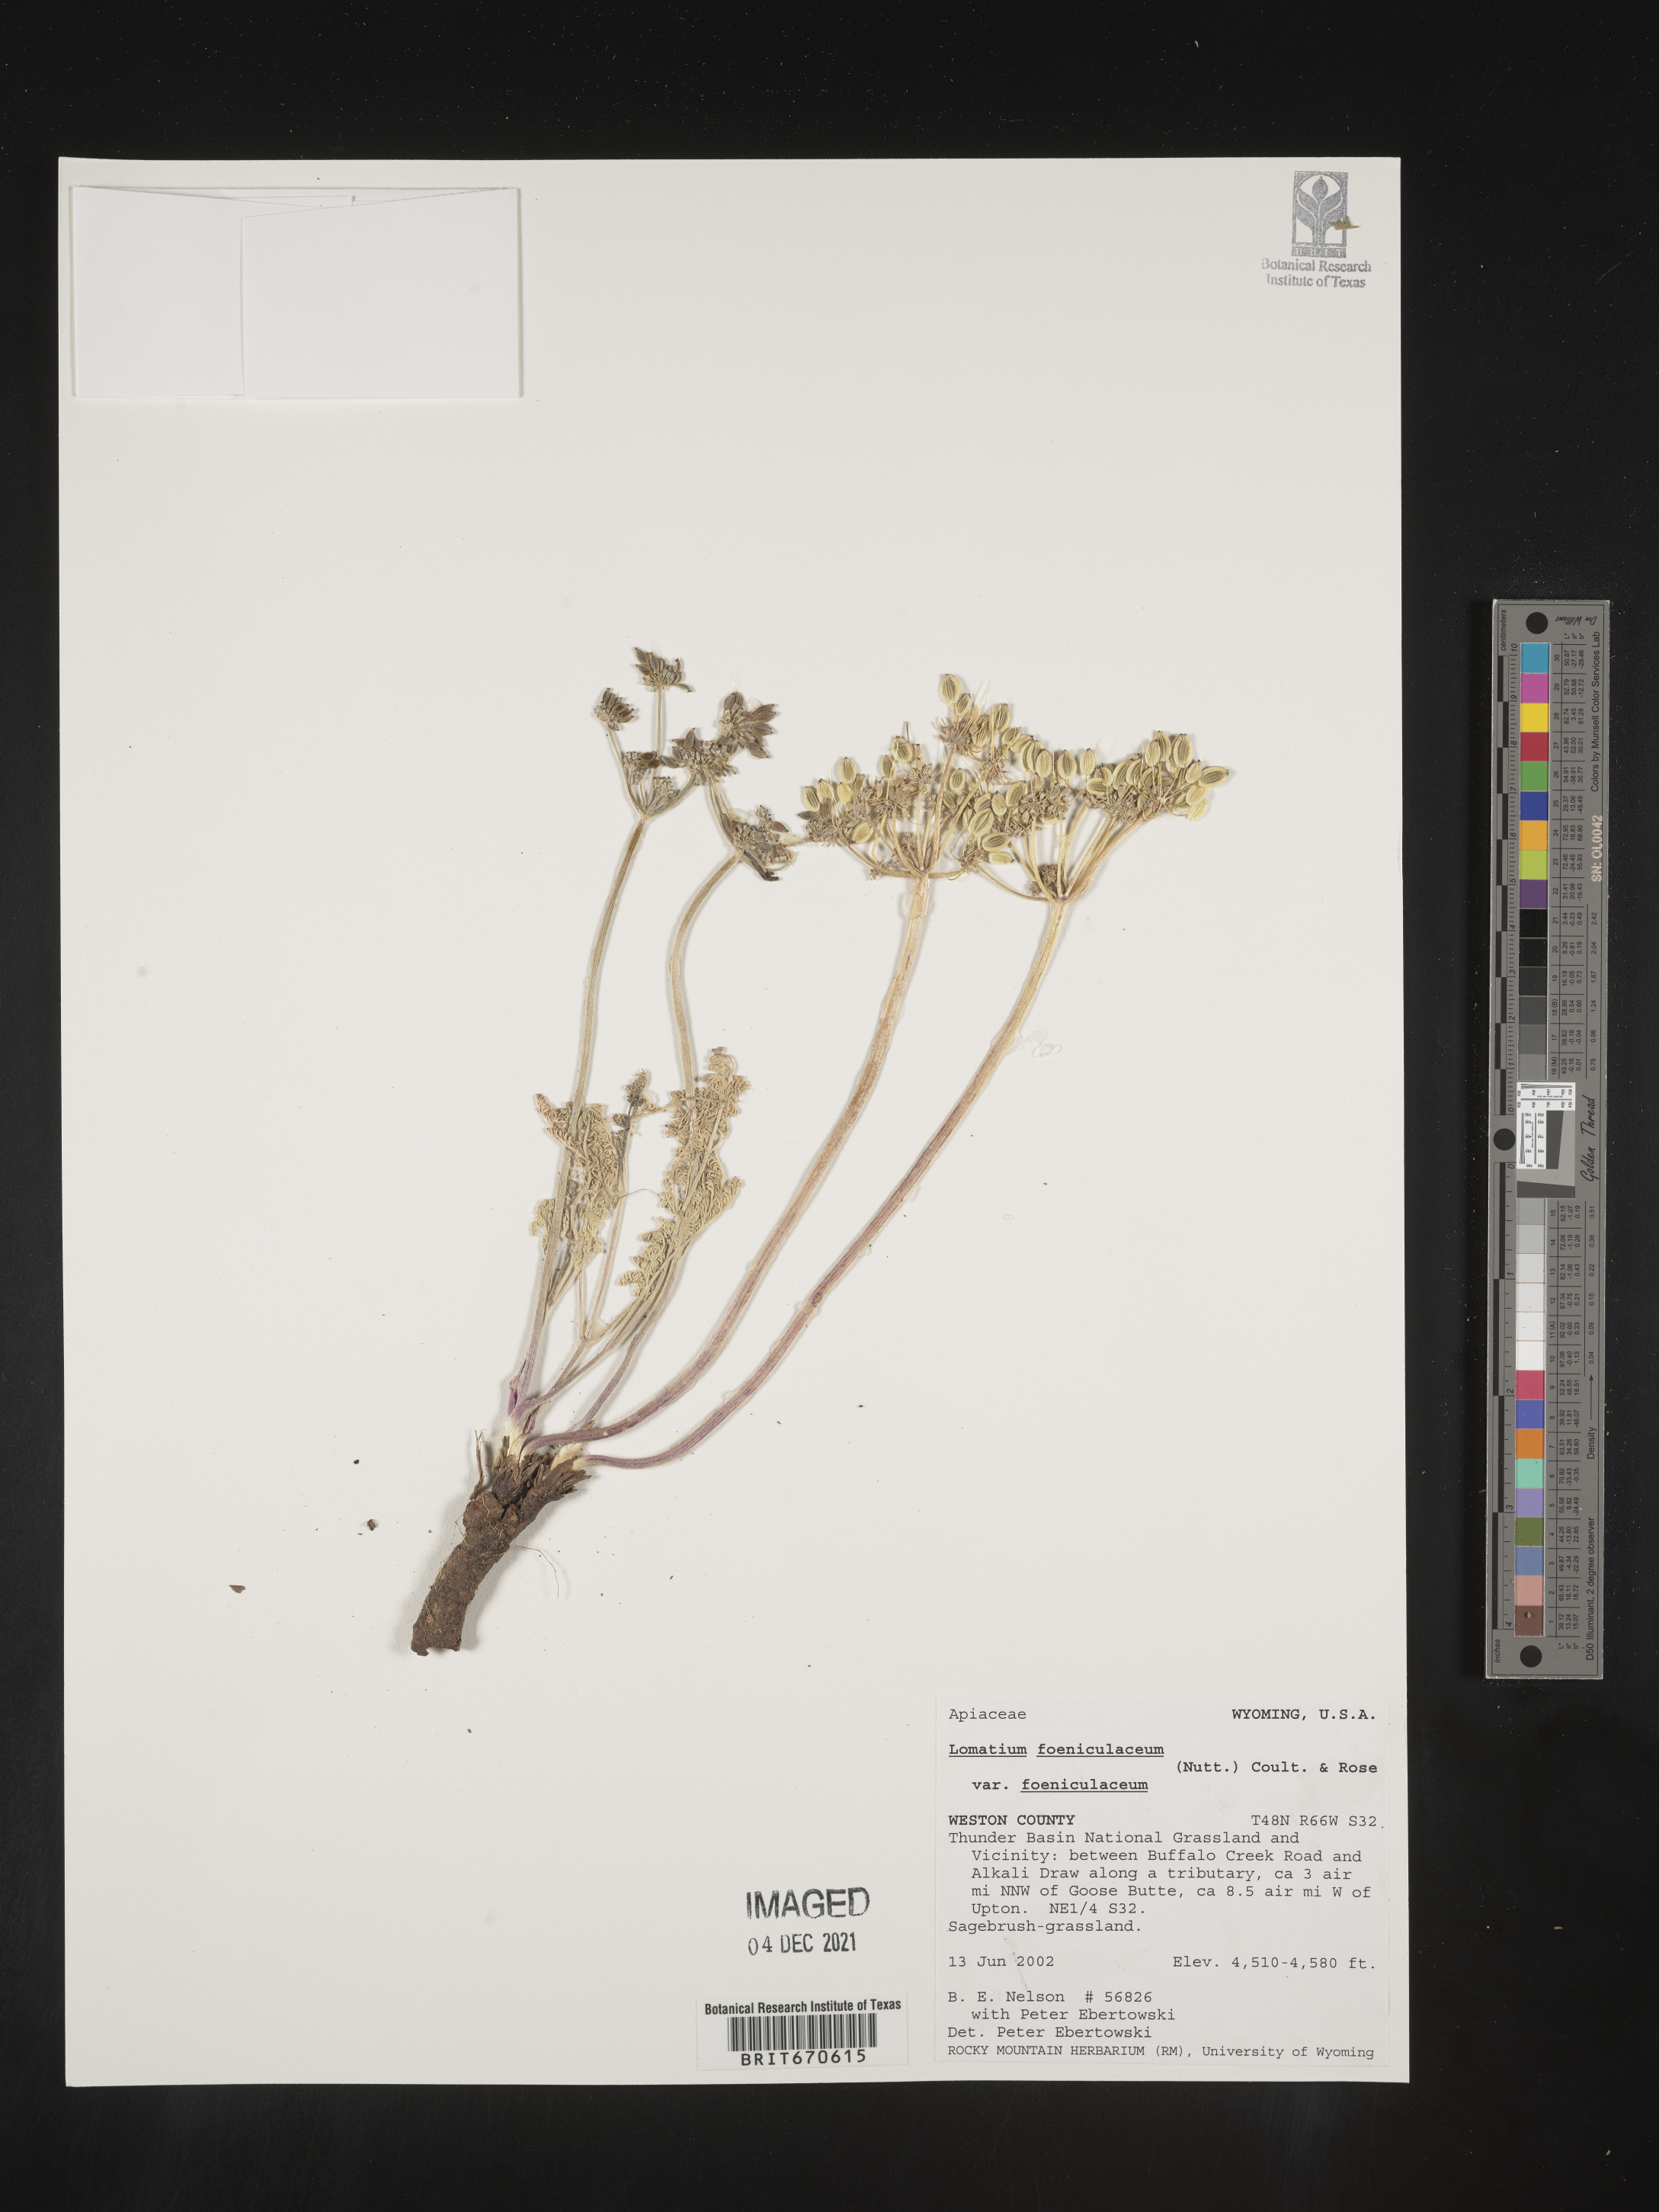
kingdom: Plantae
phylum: Tracheophyta
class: Magnoliopsida
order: Apiales
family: Apiaceae
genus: Lomatium
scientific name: Lomatium foeniculaceum
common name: Desert-parsley
